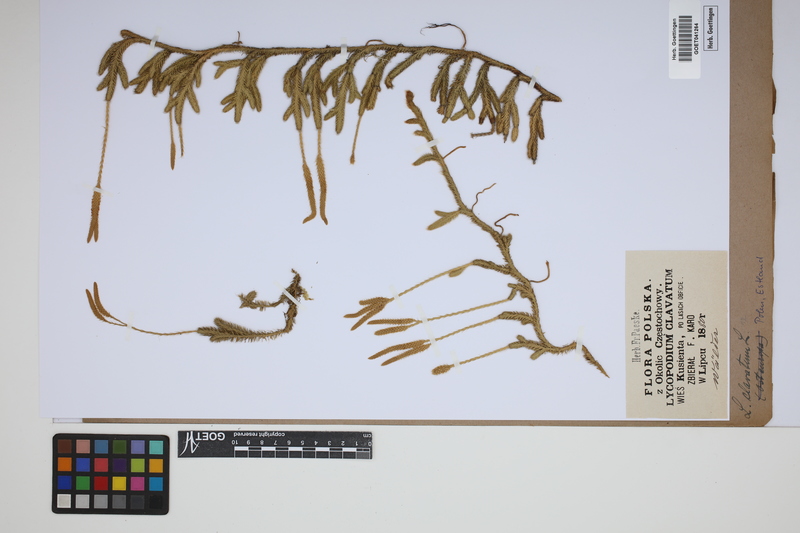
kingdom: Plantae
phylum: Tracheophyta
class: Lycopodiopsida
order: Lycopodiales
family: Lycopodiaceae
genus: Lycopodium
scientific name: Lycopodium clavatum
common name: Stag's-horn clubmoss
